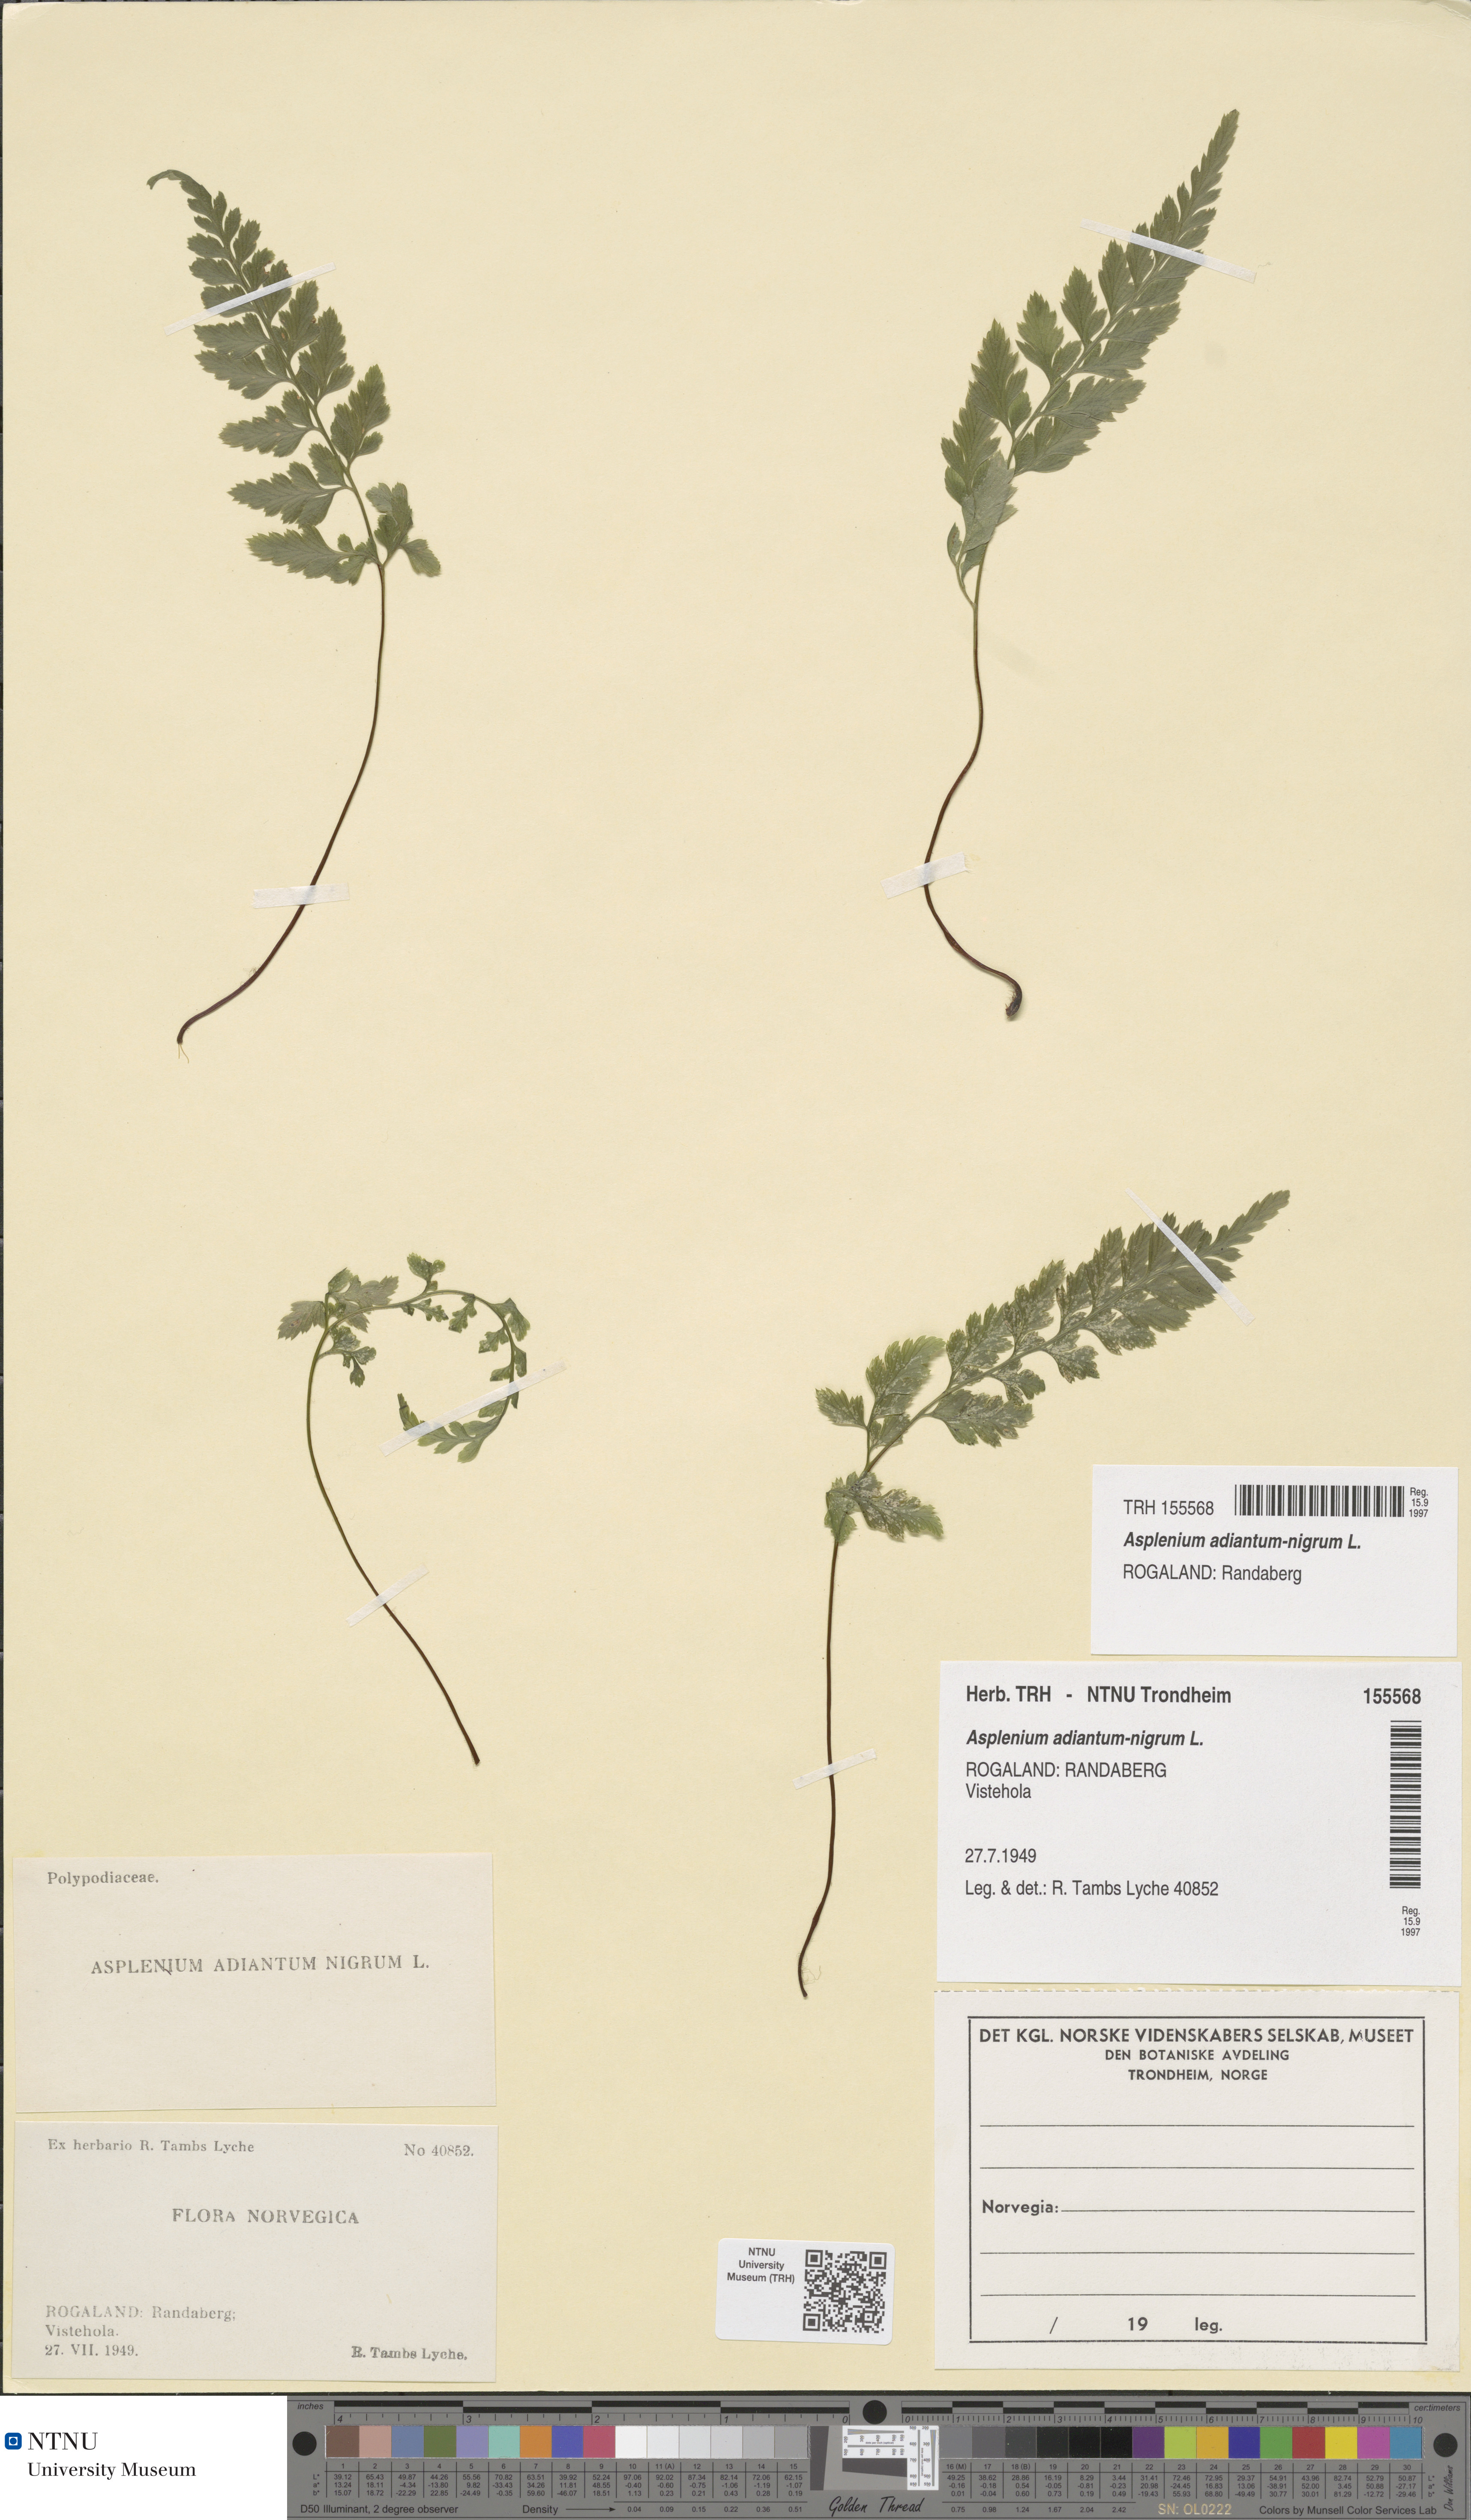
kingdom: Plantae
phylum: Tracheophyta
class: Polypodiopsida
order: Polypodiales
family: Aspleniaceae
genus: Asplenium
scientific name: Asplenium adiantum-nigrum
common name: Black spleenwort
